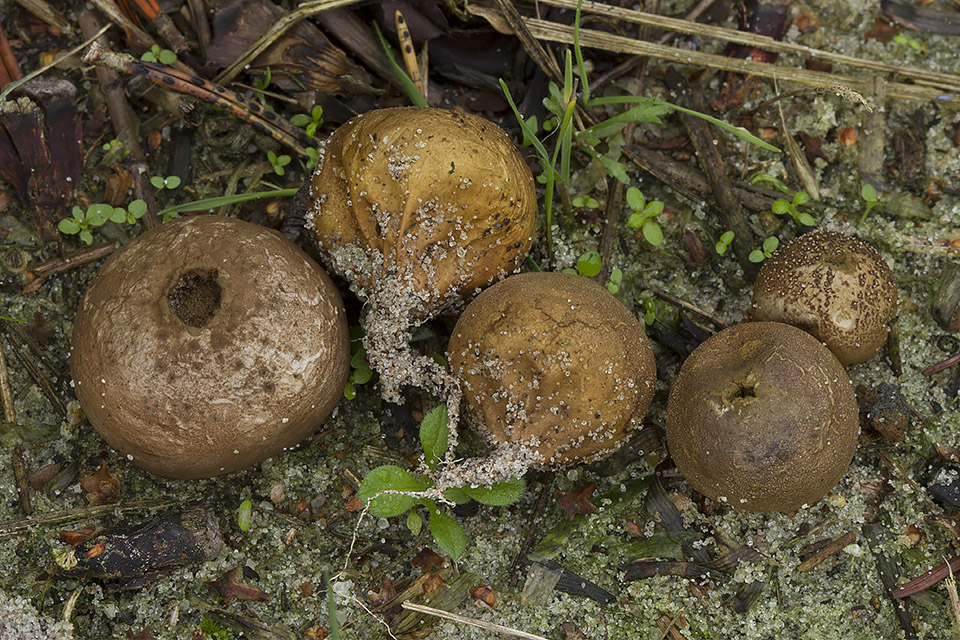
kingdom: Fungi
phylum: Basidiomycota
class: Agaricomycetes
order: Agaricales
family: Lycoperdaceae
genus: Lycoperdon
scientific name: Lycoperdon dermoxanthum
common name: Dwarf puffball
